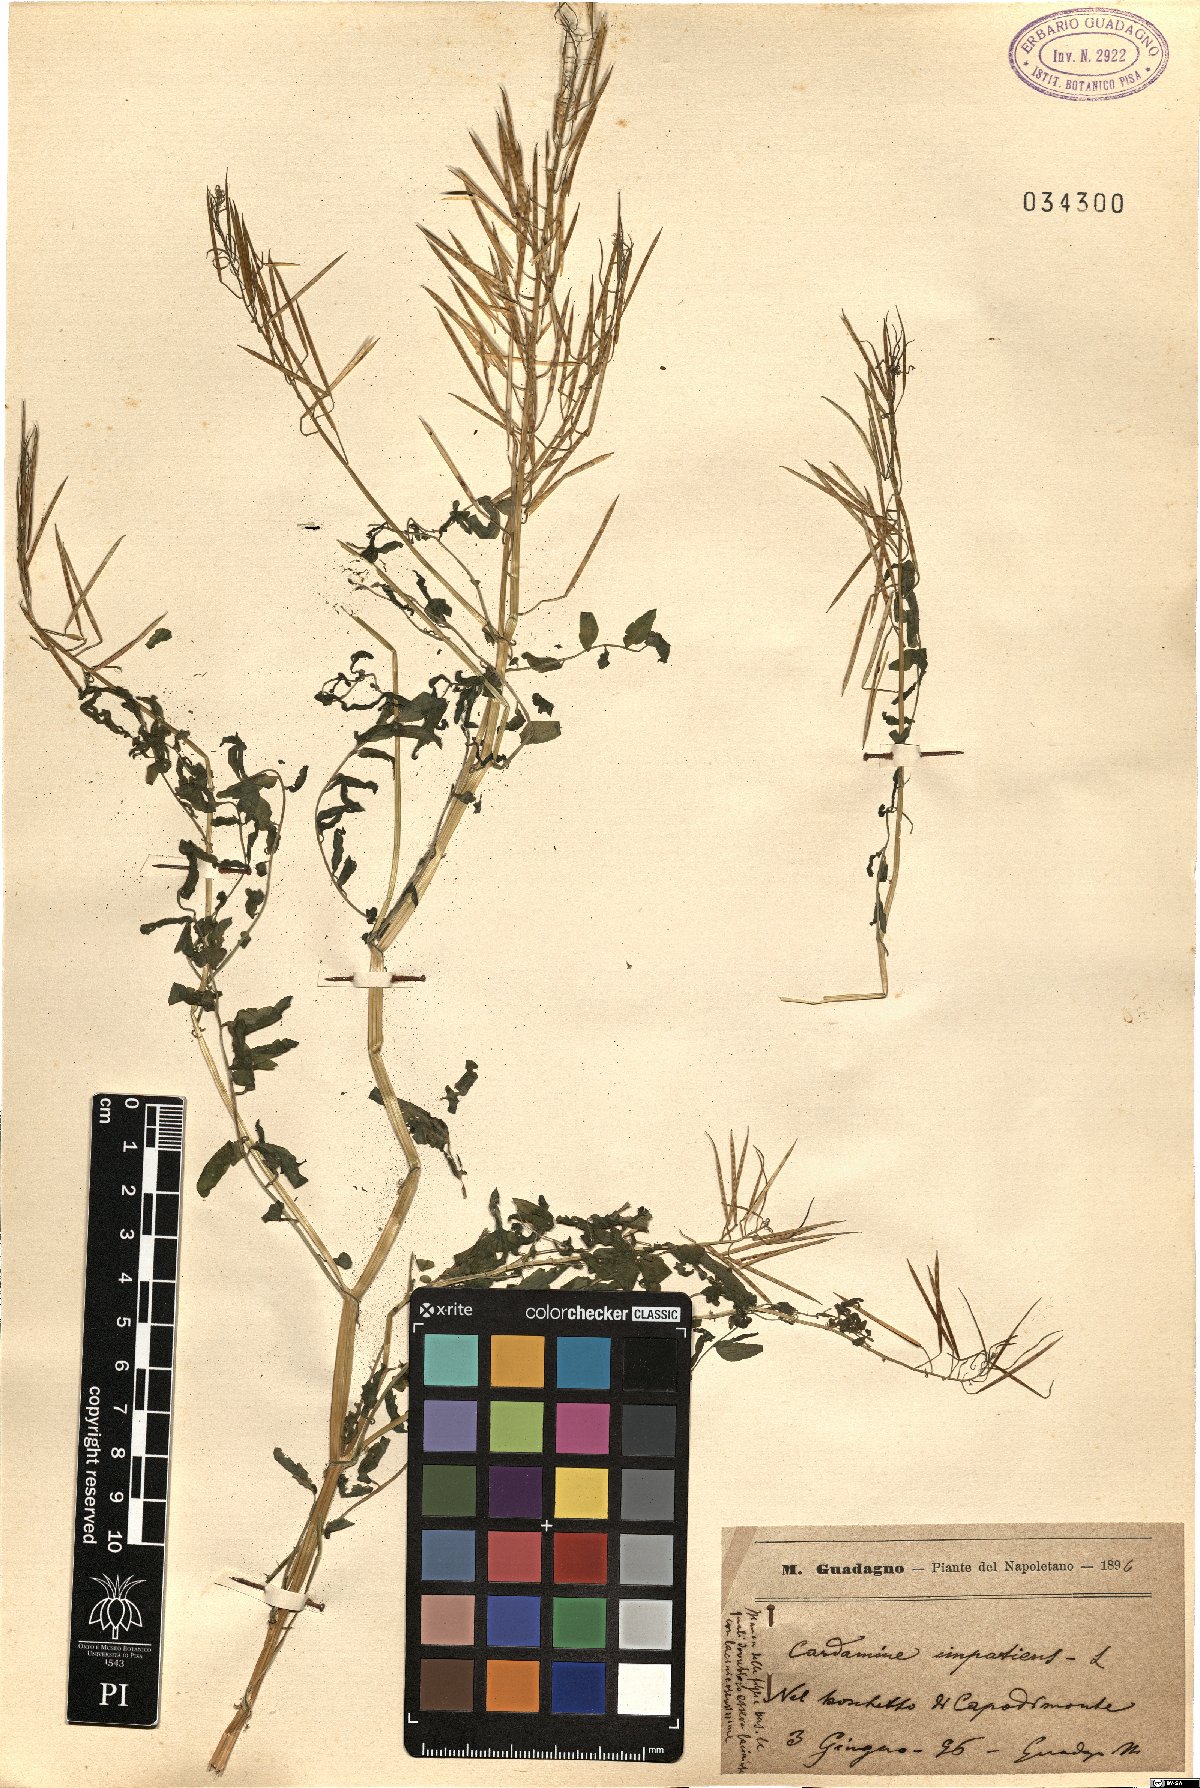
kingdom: Plantae
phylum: Tracheophyta
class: Magnoliopsida
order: Brassicales
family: Brassicaceae
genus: Cardamine
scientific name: Cardamine impatiens
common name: Narrow-leaved bitter-cress
